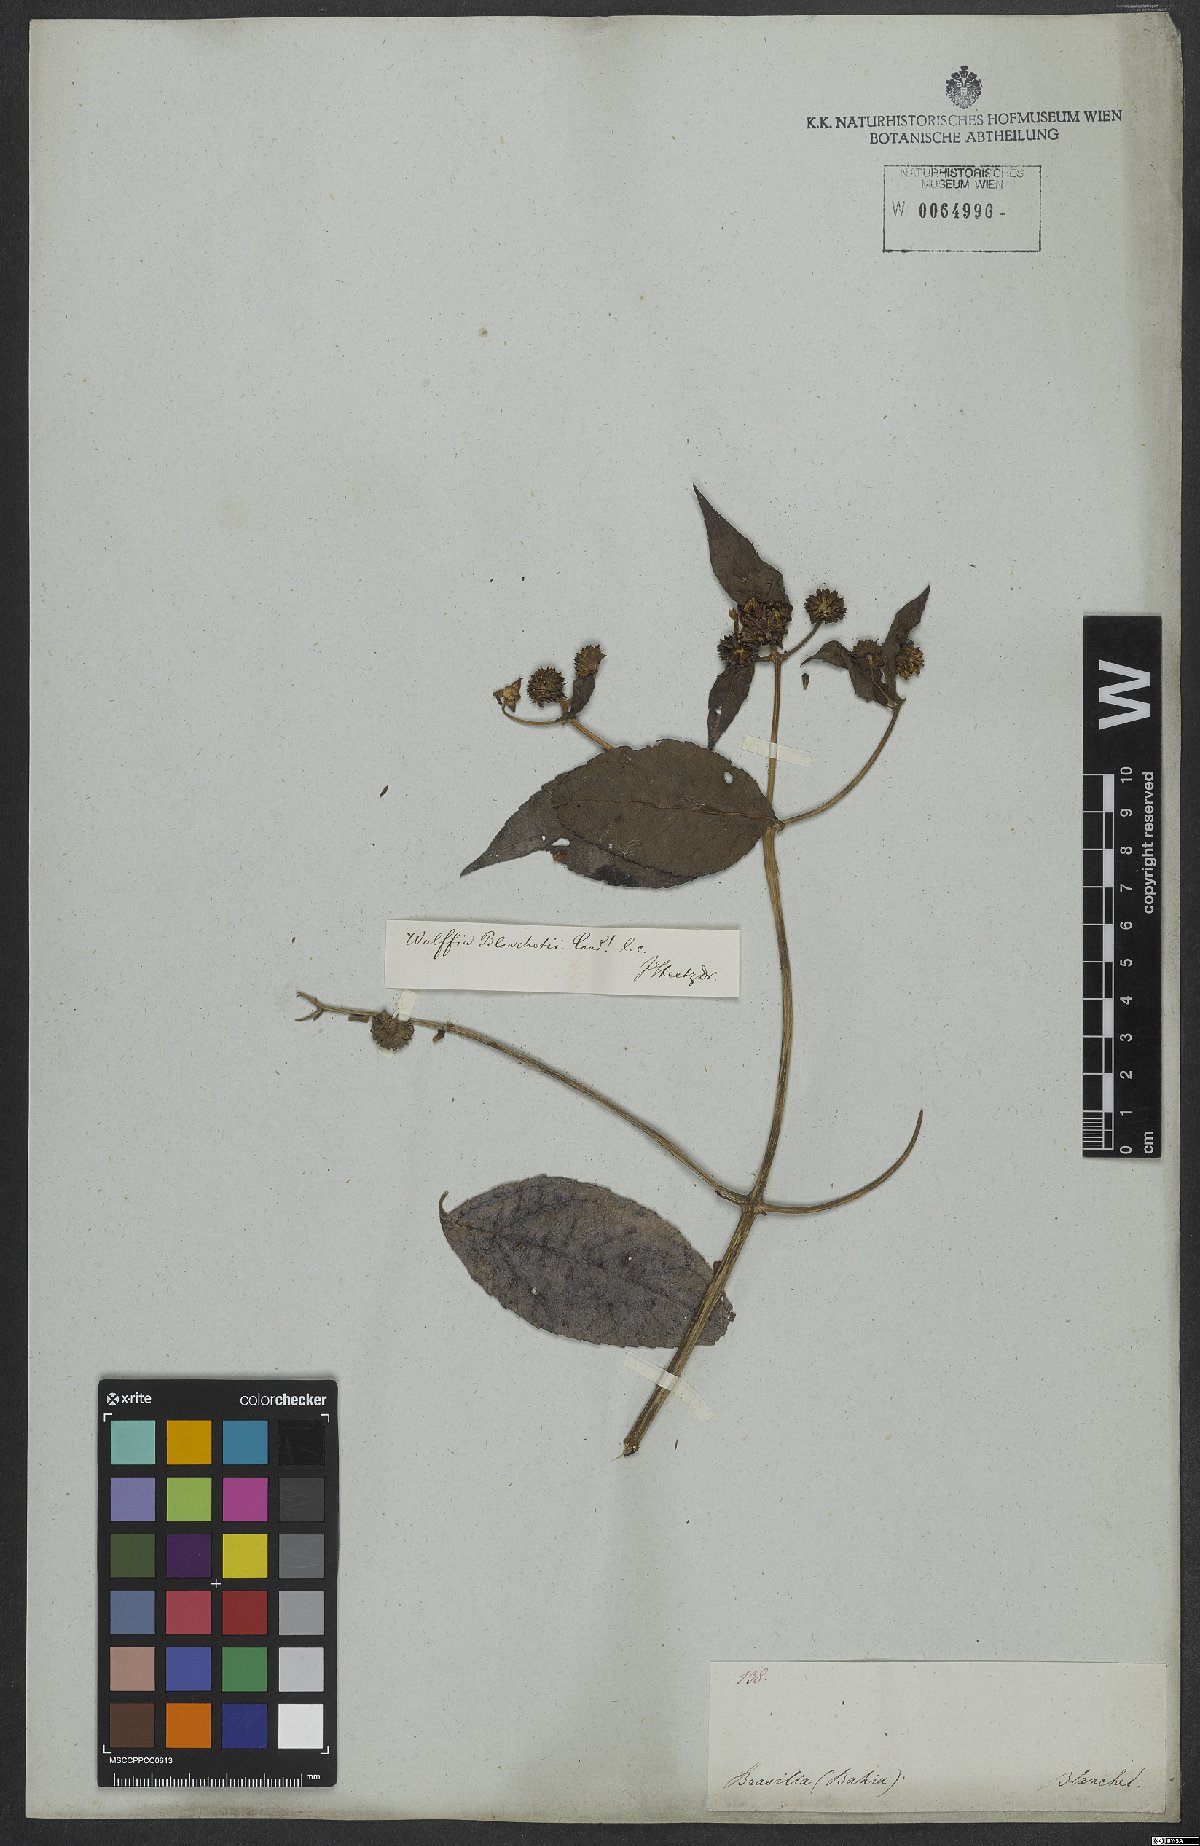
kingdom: Plantae
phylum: Tracheophyta
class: Magnoliopsida
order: Asterales
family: Asteraceae
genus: Tilesia
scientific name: Tilesia baccata
